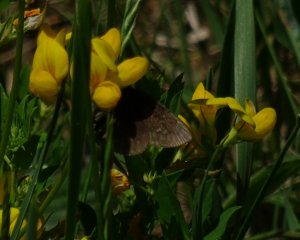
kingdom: Animalia
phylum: Arthropoda
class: Insecta
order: Lepidoptera
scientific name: Lepidoptera
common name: Butterflies
